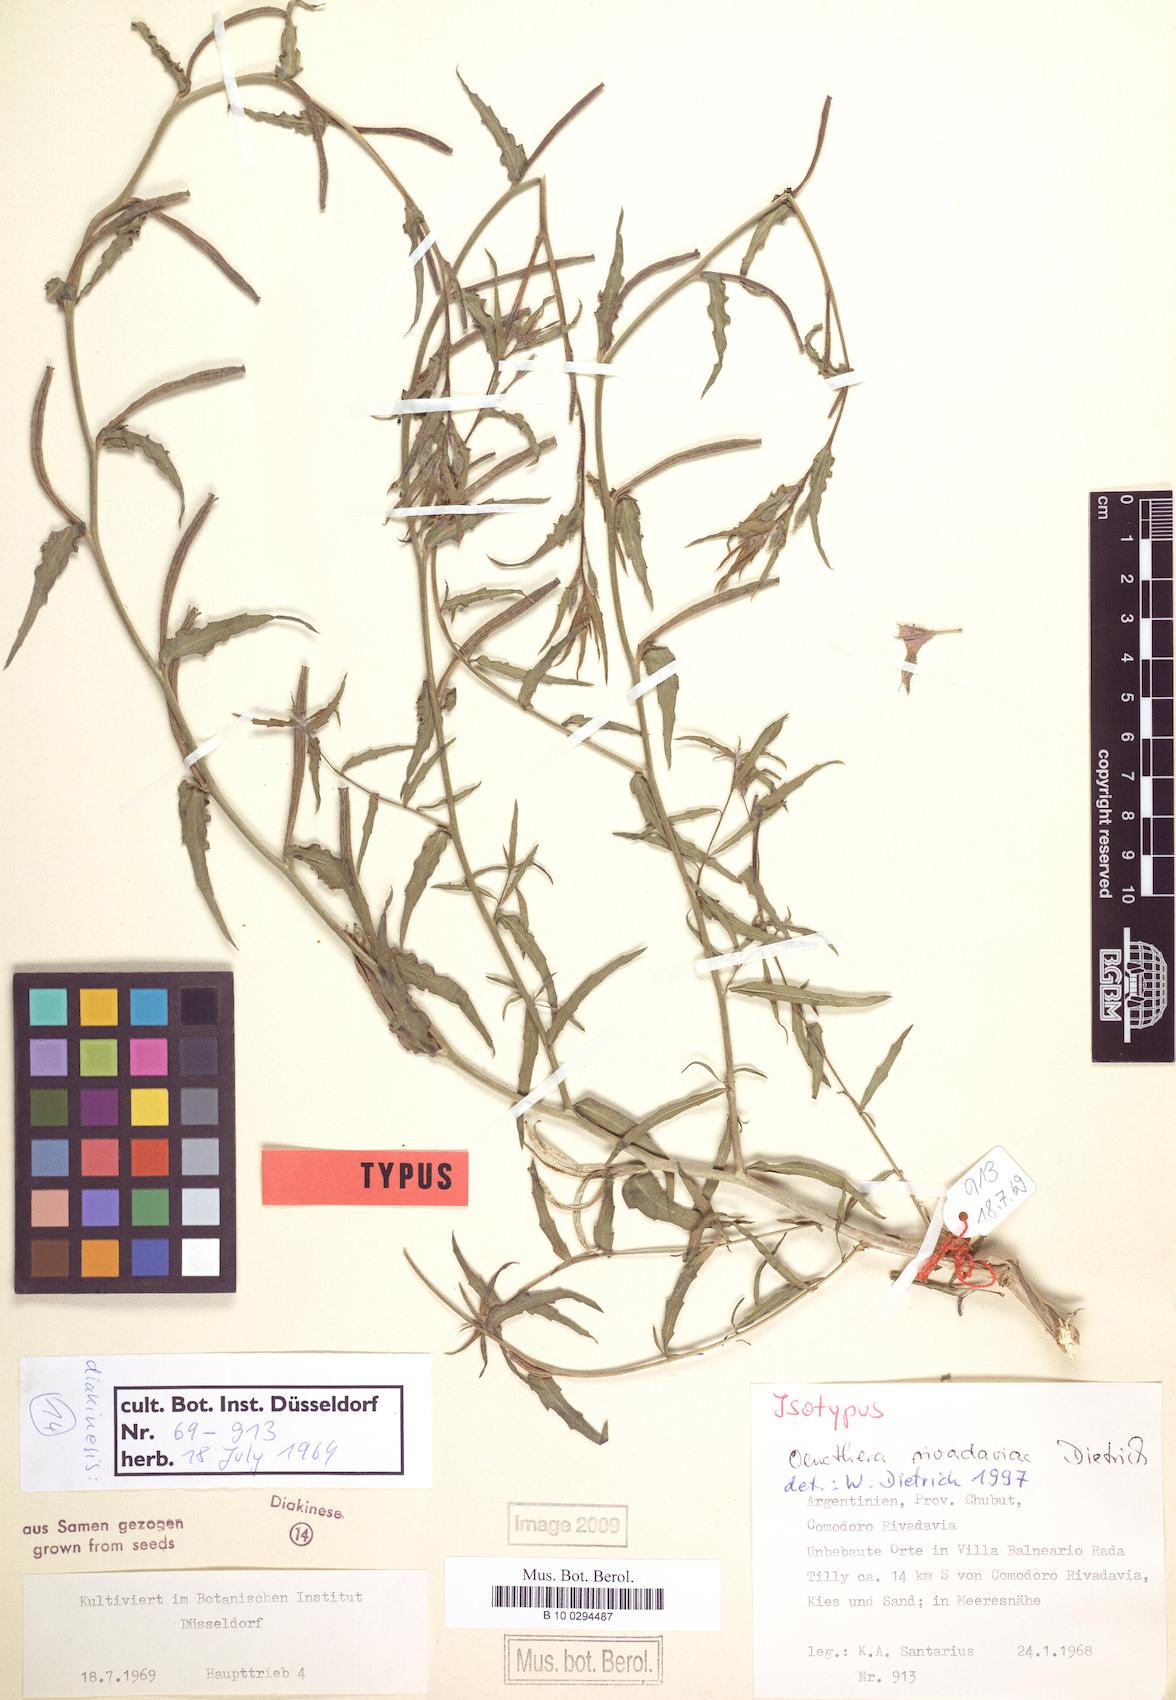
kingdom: Plantae
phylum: Tracheophyta
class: Magnoliopsida
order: Myrtales
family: Onagraceae
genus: Oenothera
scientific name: Oenothera rivadaviae
